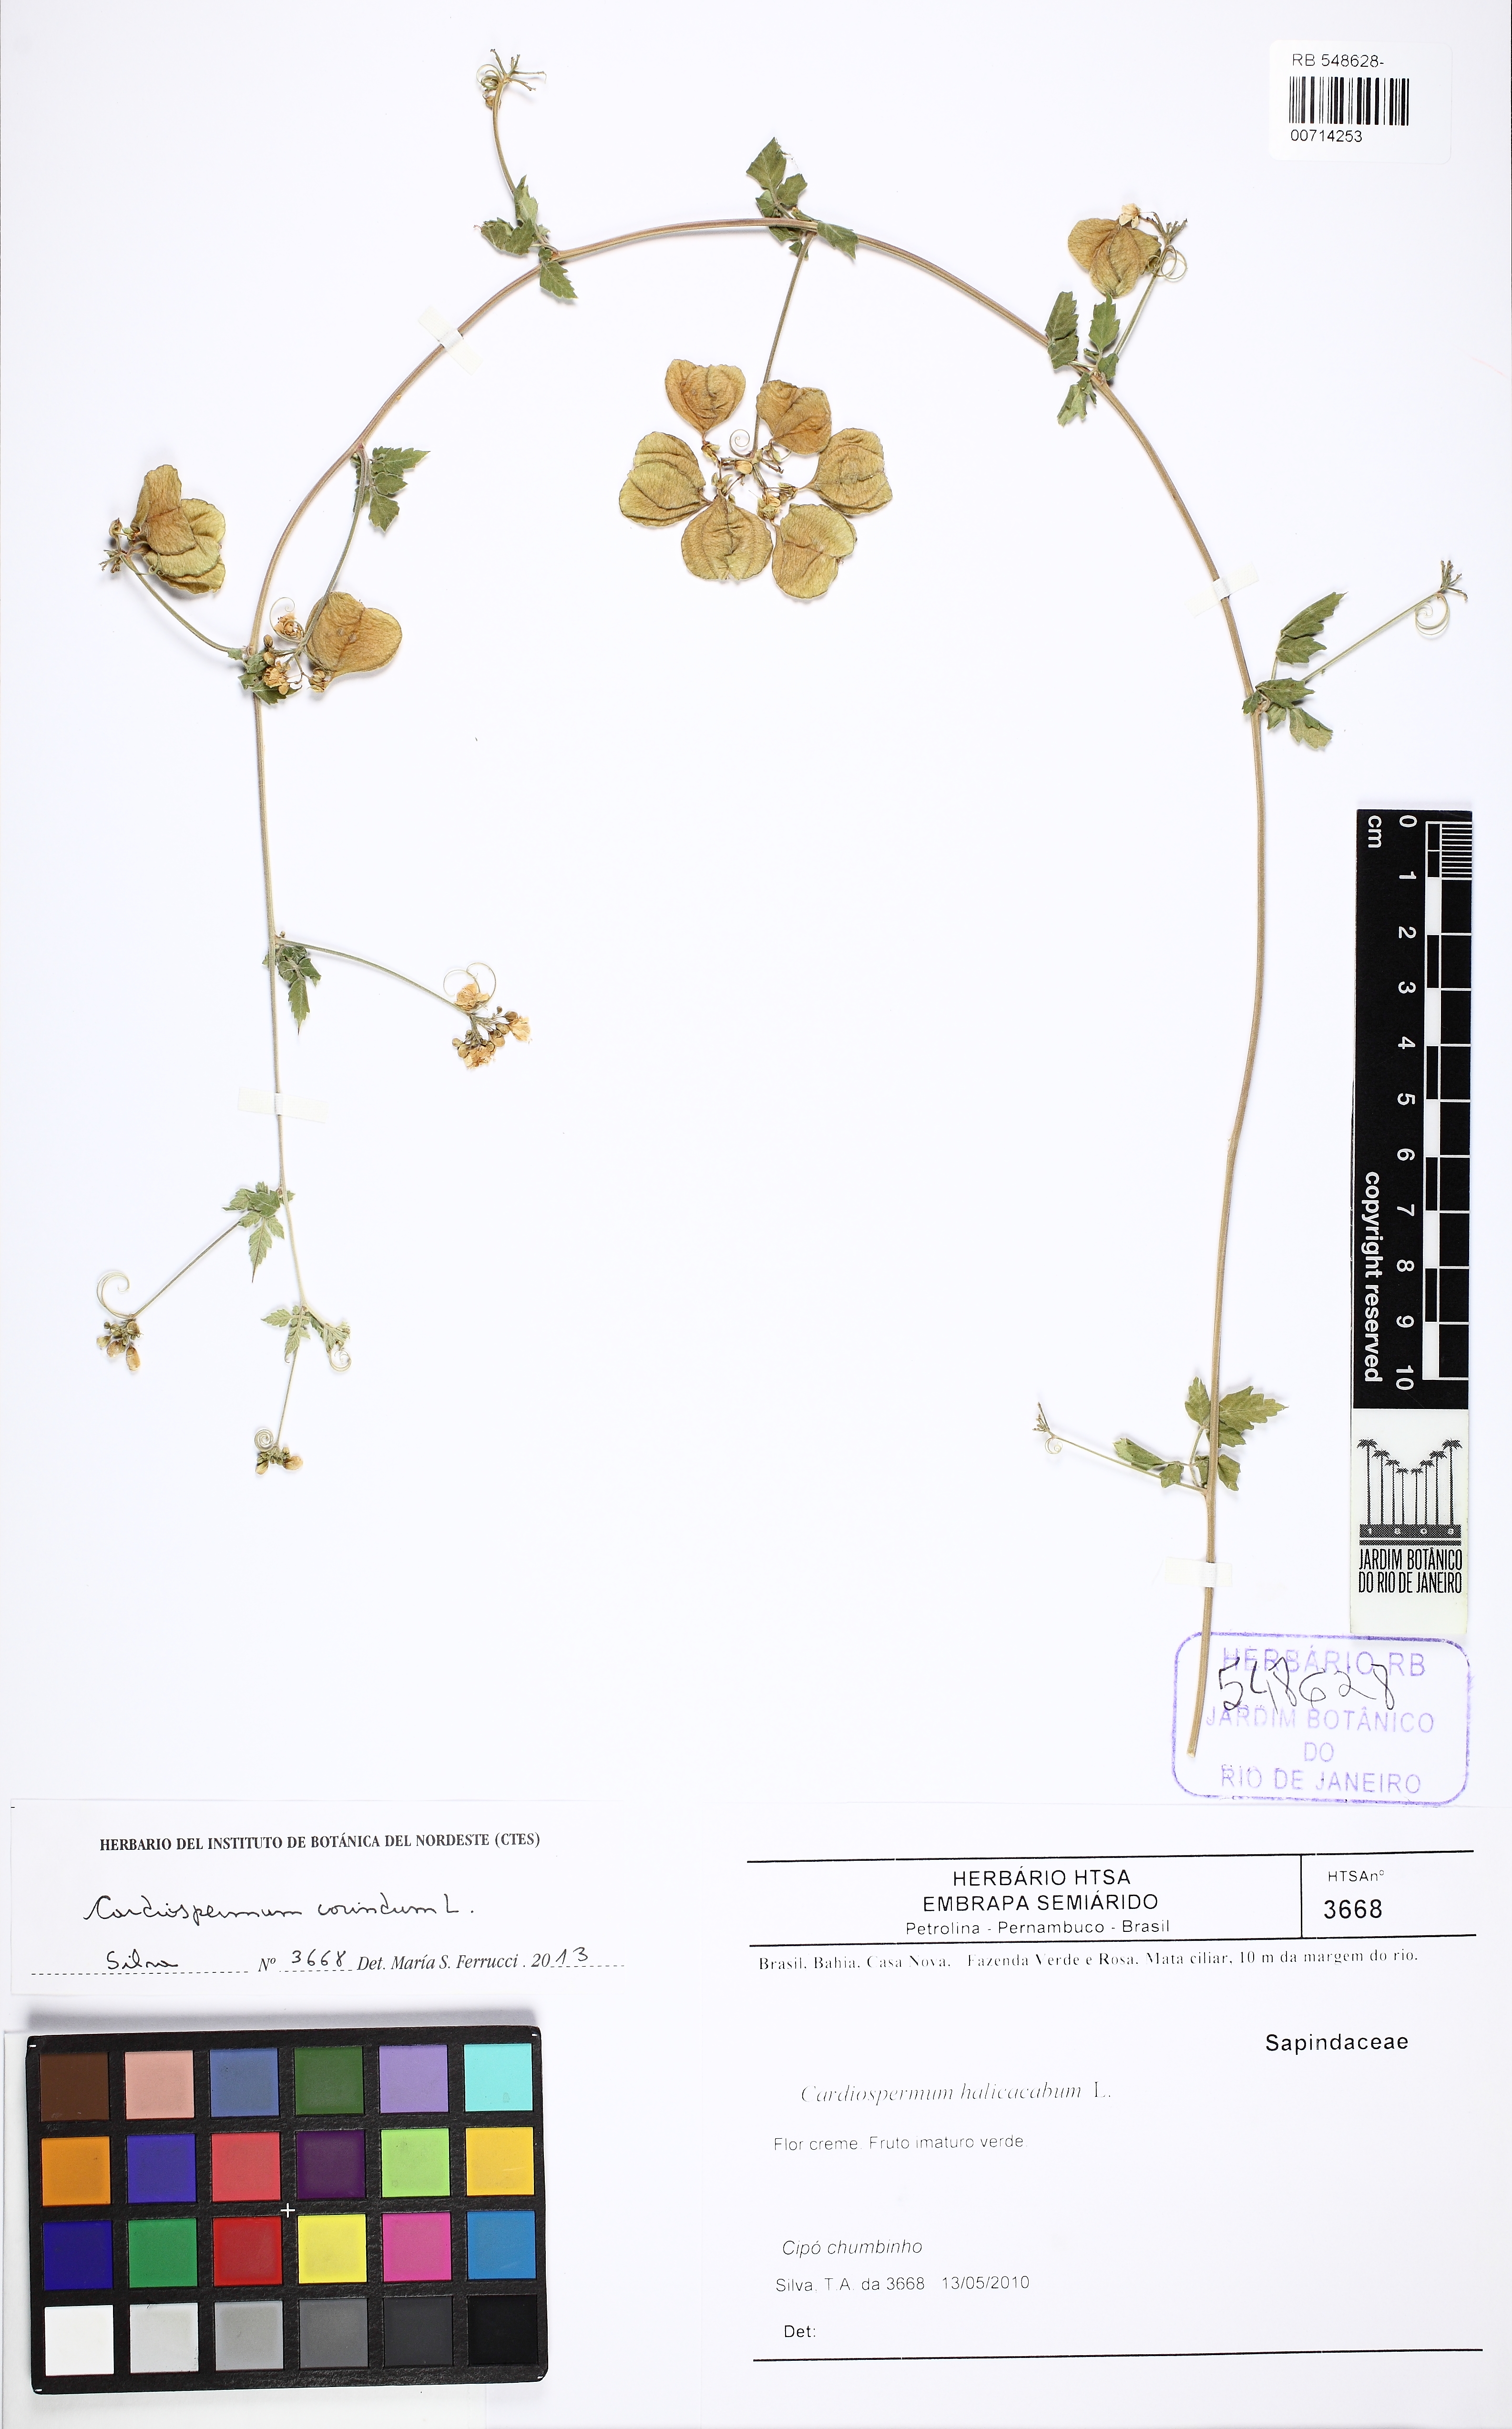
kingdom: Plantae
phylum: Tracheophyta
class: Magnoliopsida
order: Sapindales
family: Sapindaceae
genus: Cardiospermum
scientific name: Cardiospermum corindum
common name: Faux persil
